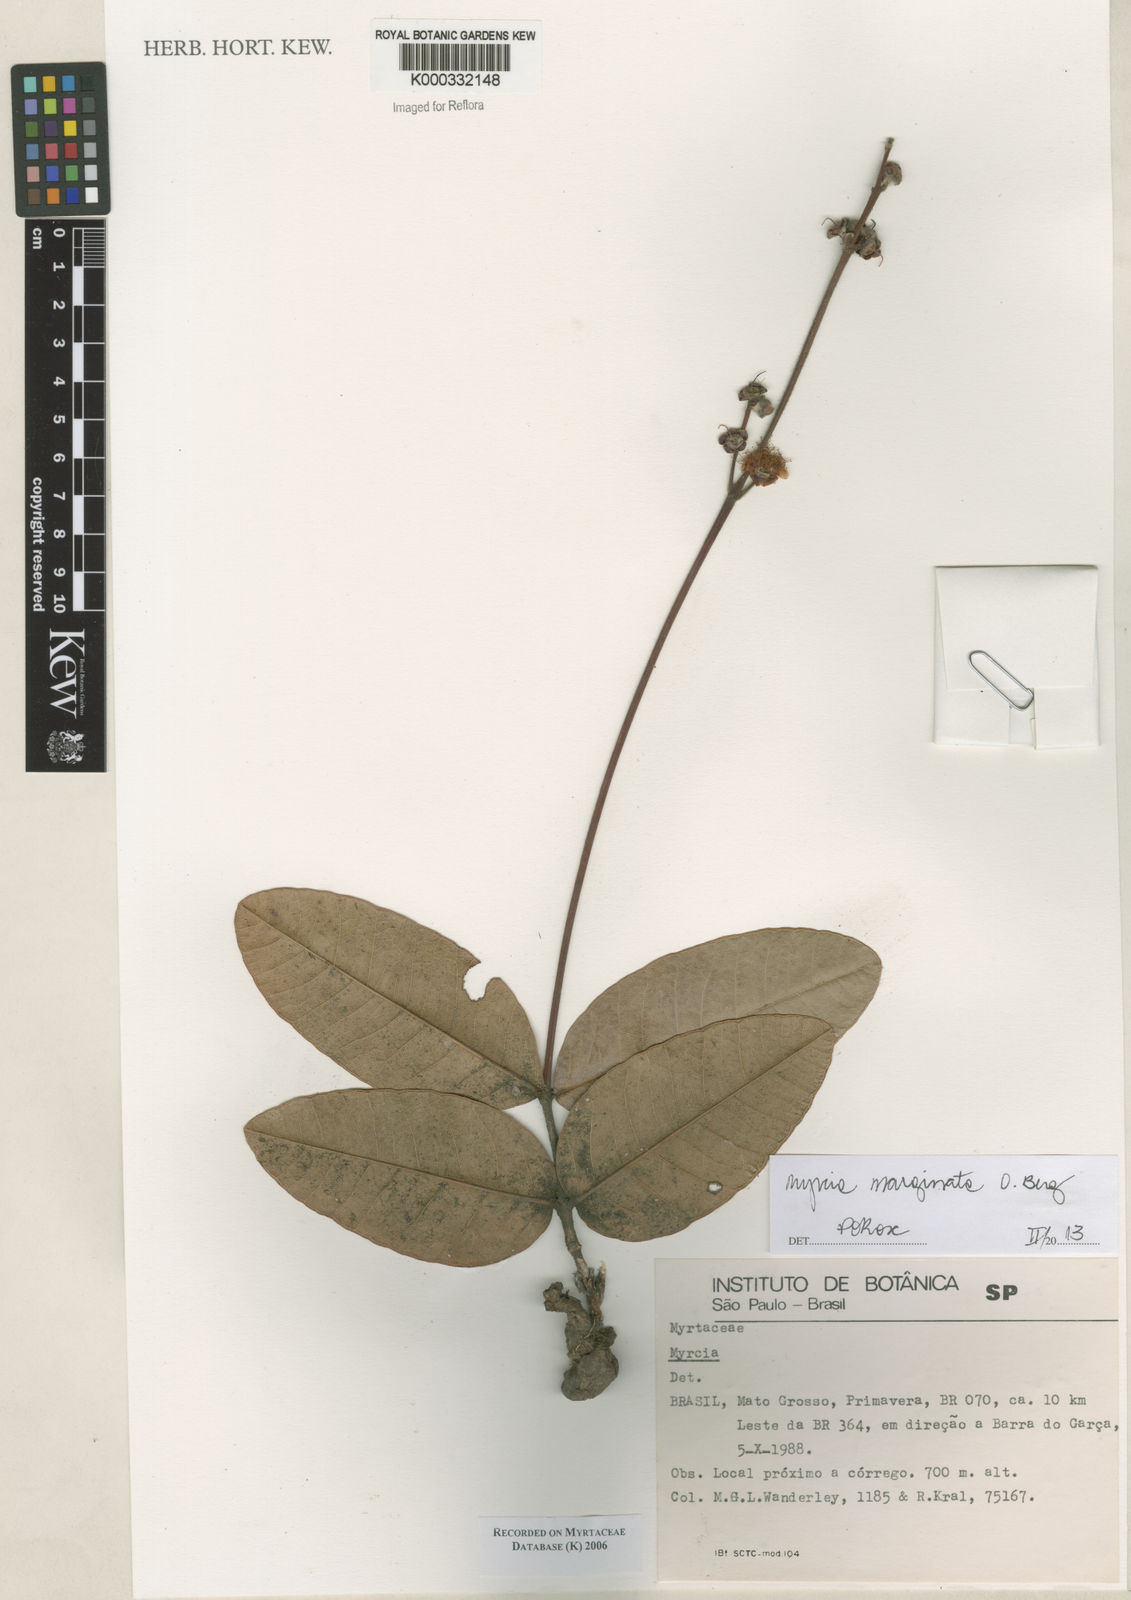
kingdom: Plantae
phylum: Tracheophyta
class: Magnoliopsida
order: Myrtales
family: Myrtaceae
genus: Myrcia
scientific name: Myrcia
